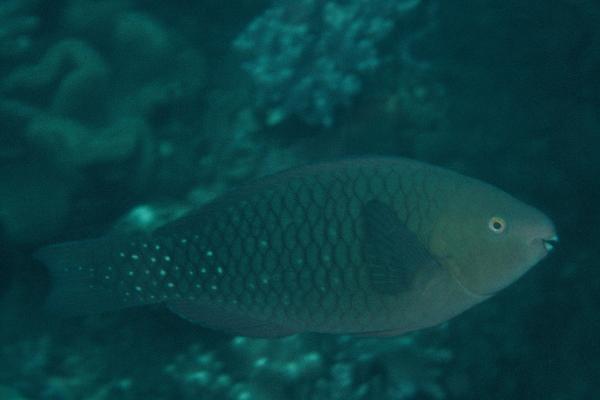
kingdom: Animalia
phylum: Chordata
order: Perciformes
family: Scaridae
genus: Scarus
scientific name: Scarus falcipinnis
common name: Greenbelly parrotfish
